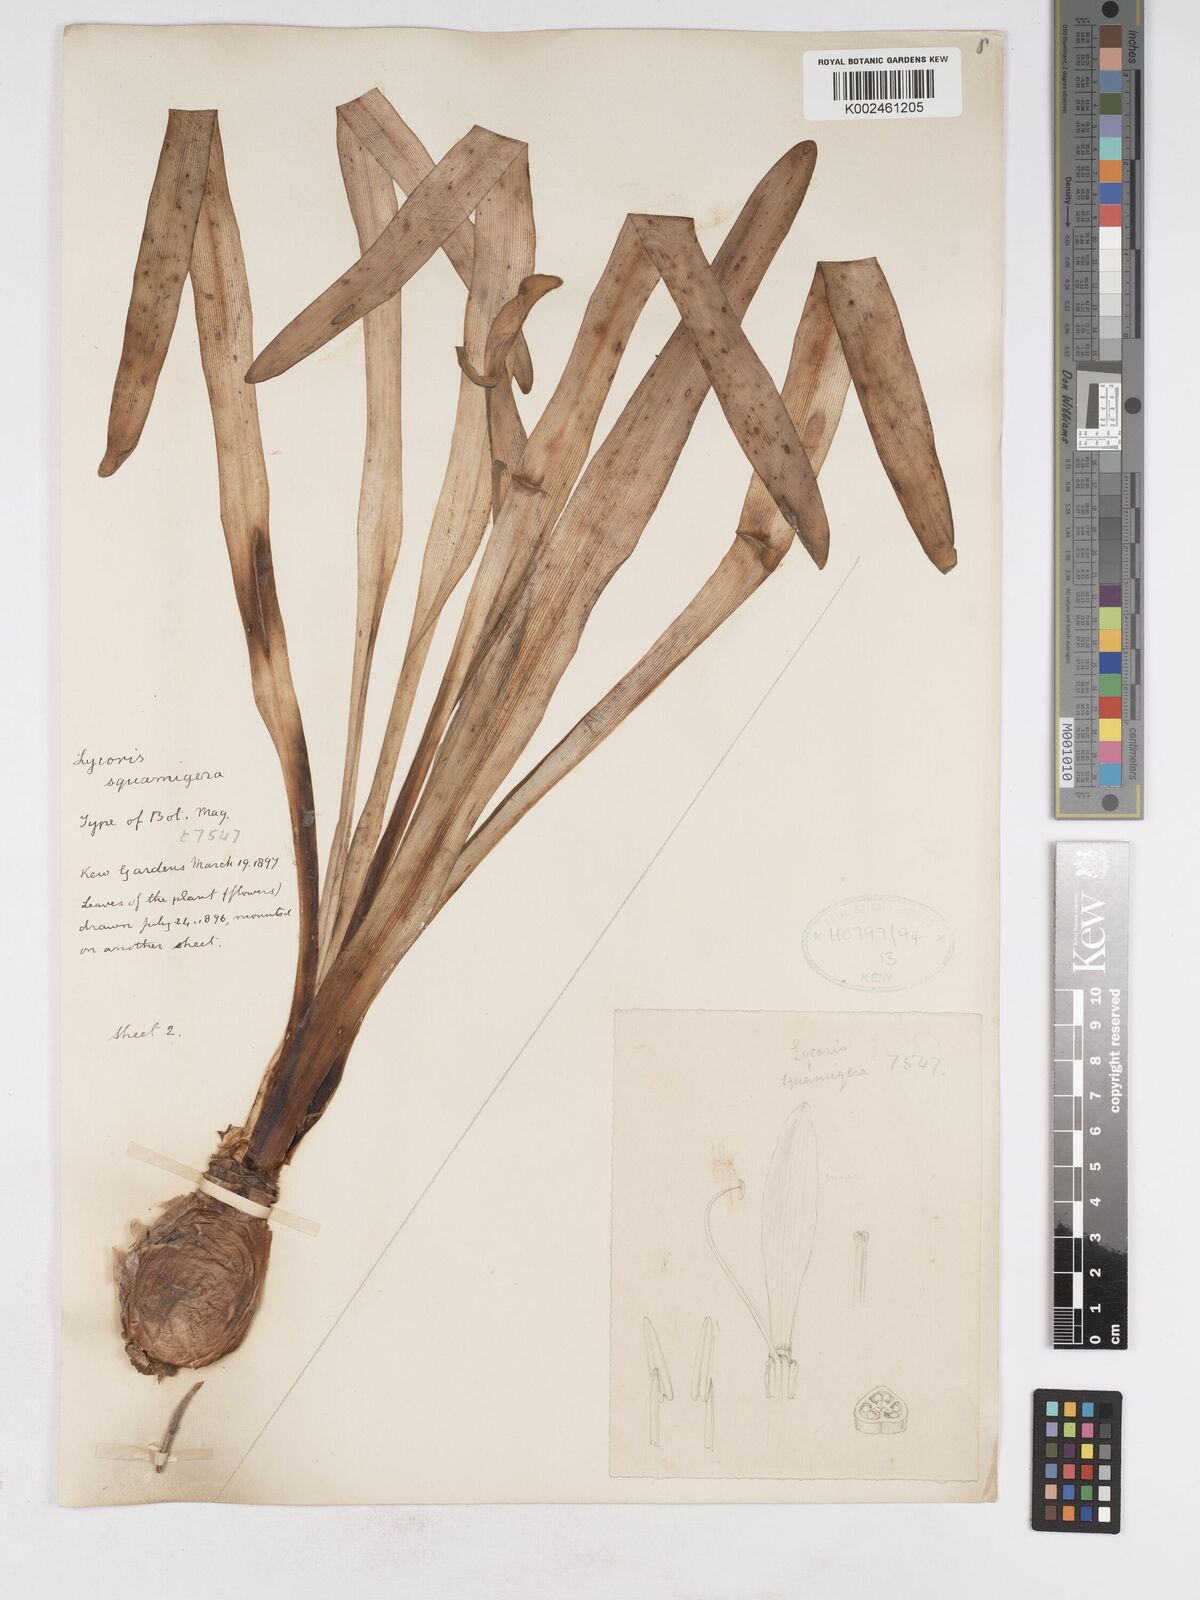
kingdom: Plantae
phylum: Tracheophyta
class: Liliopsida
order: Asparagales
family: Amaryllidaceae
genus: Lycoris
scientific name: Lycoris squamigera
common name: Magic-lily
